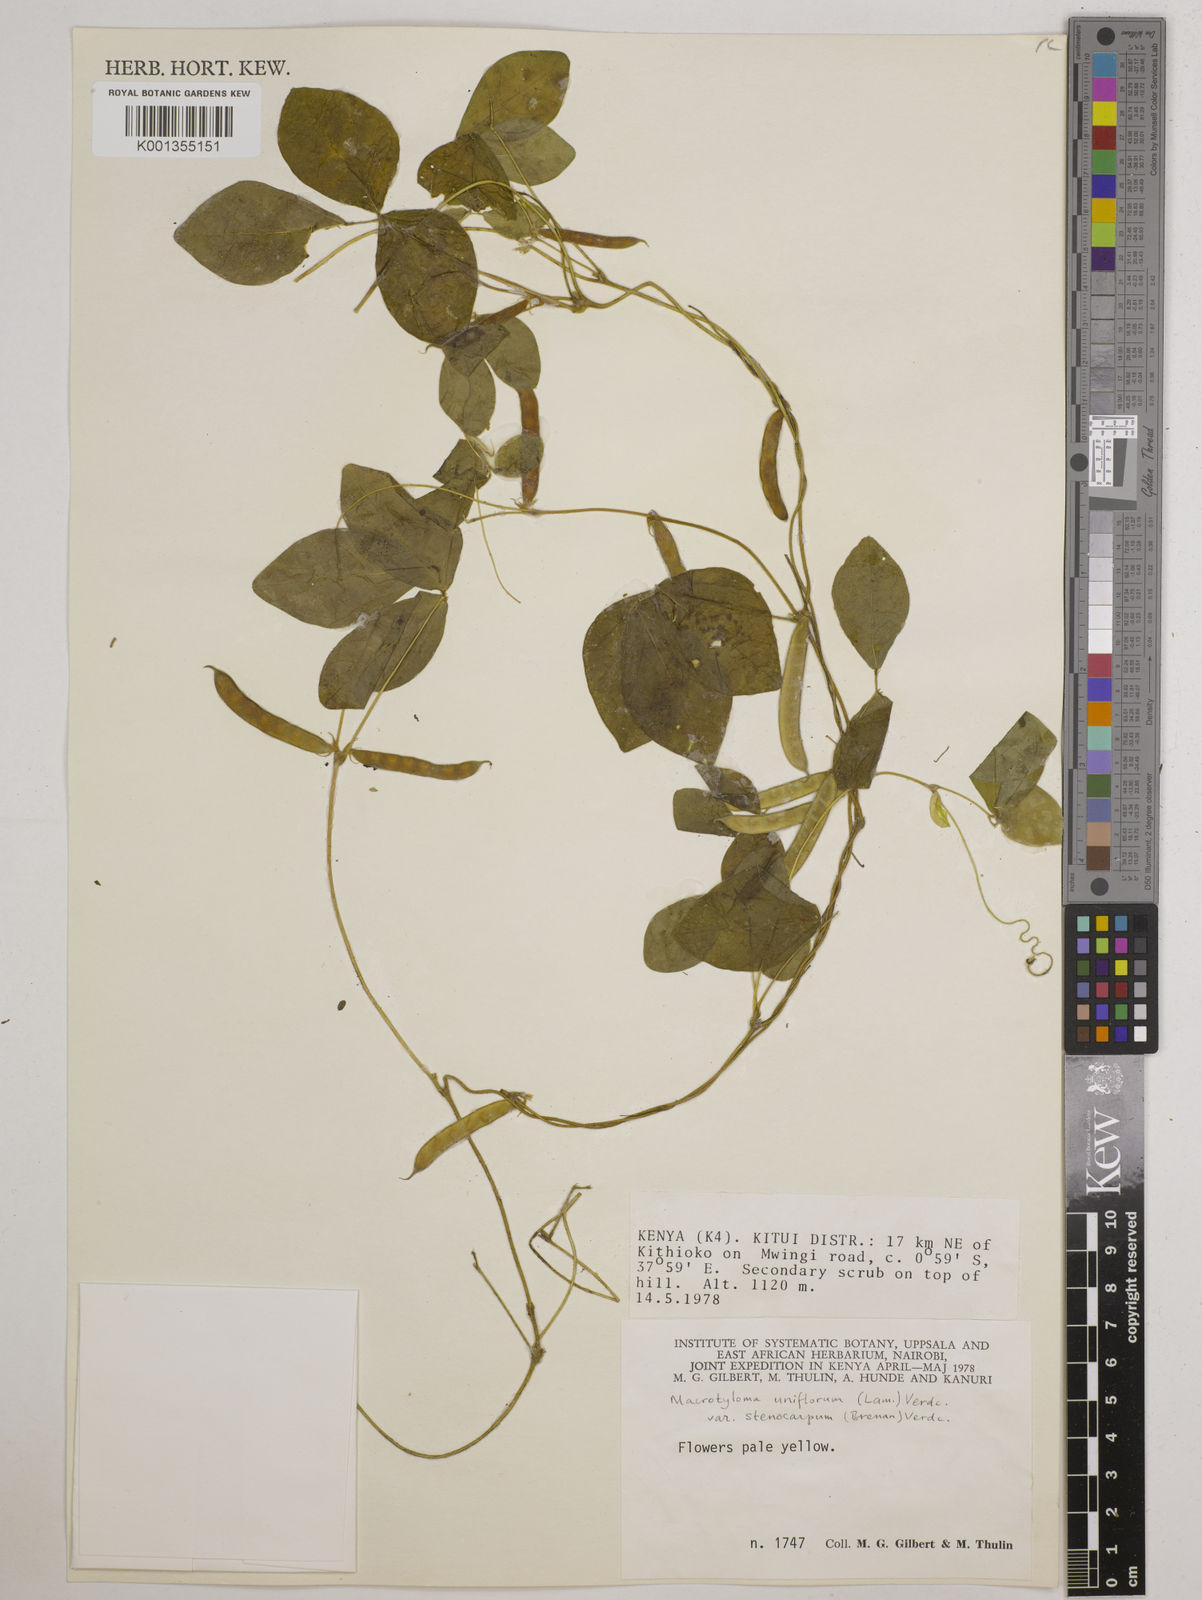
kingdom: Plantae
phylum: Tracheophyta
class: Magnoliopsida
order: Fabales
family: Fabaceae
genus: Macrotyloma
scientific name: Macrotyloma
